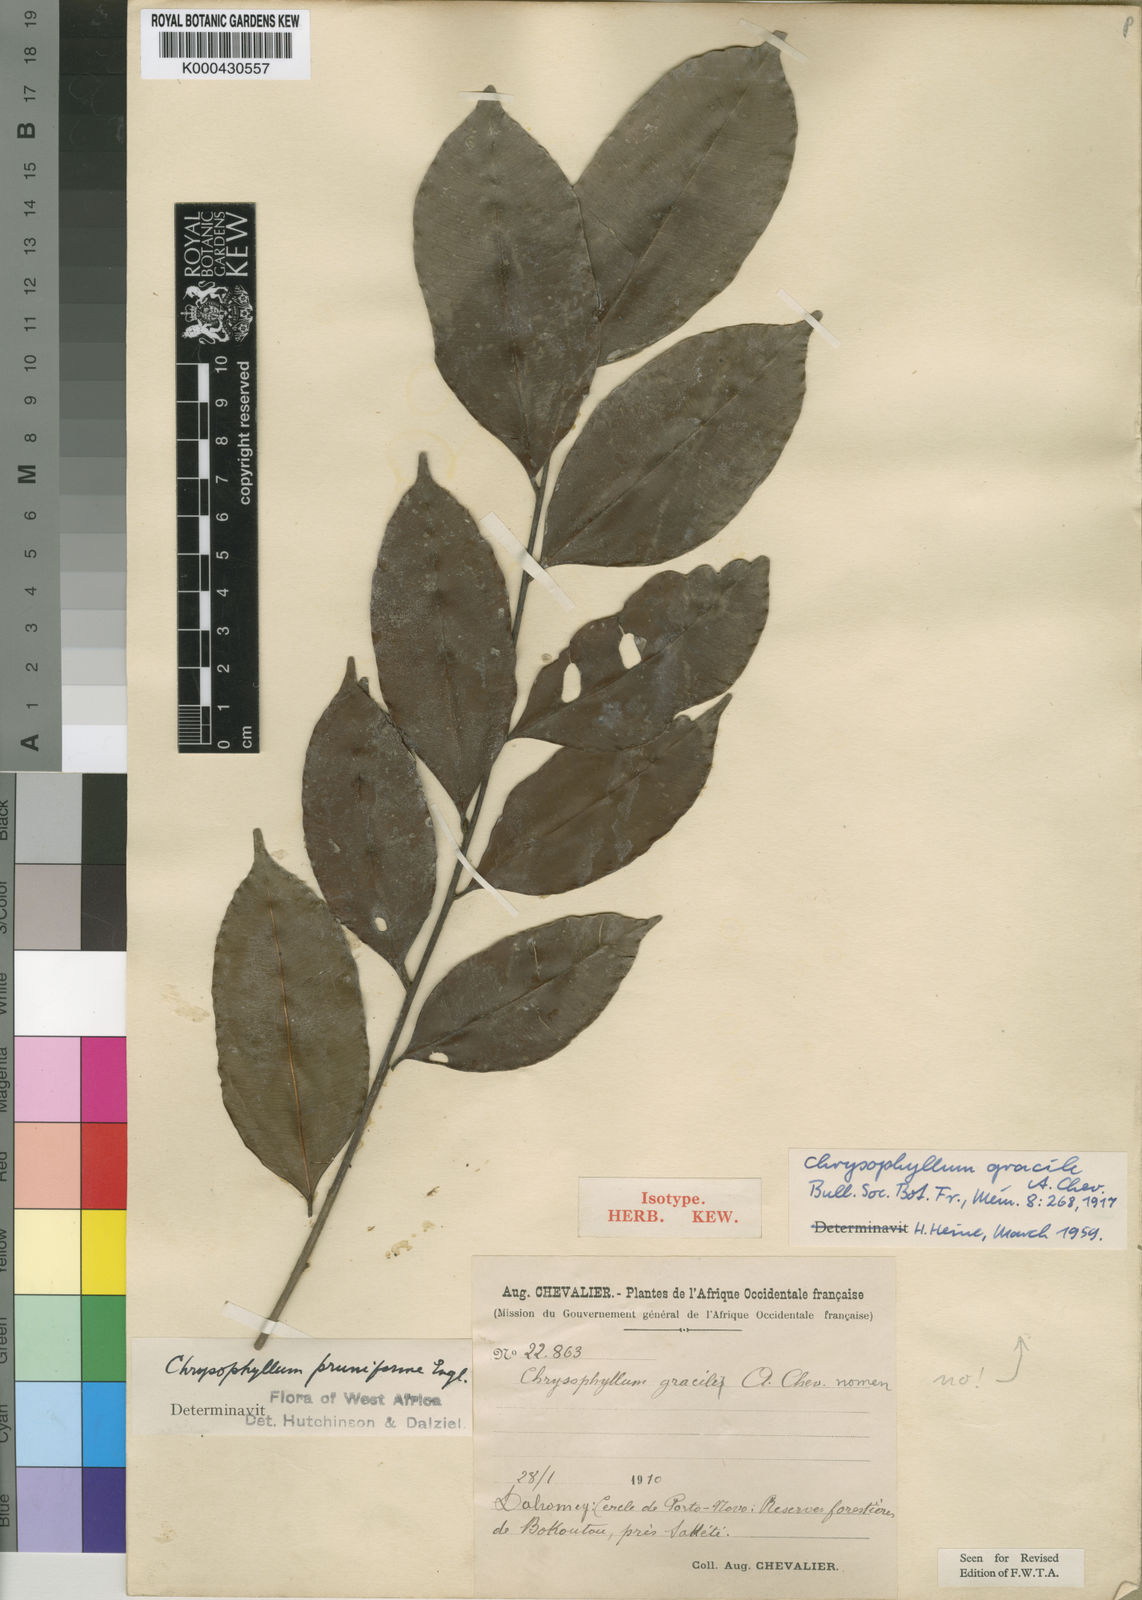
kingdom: Plantae
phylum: Tracheophyta
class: Magnoliopsida
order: Ericales
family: Sapotaceae
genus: Donella
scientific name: Donella pruniformis
